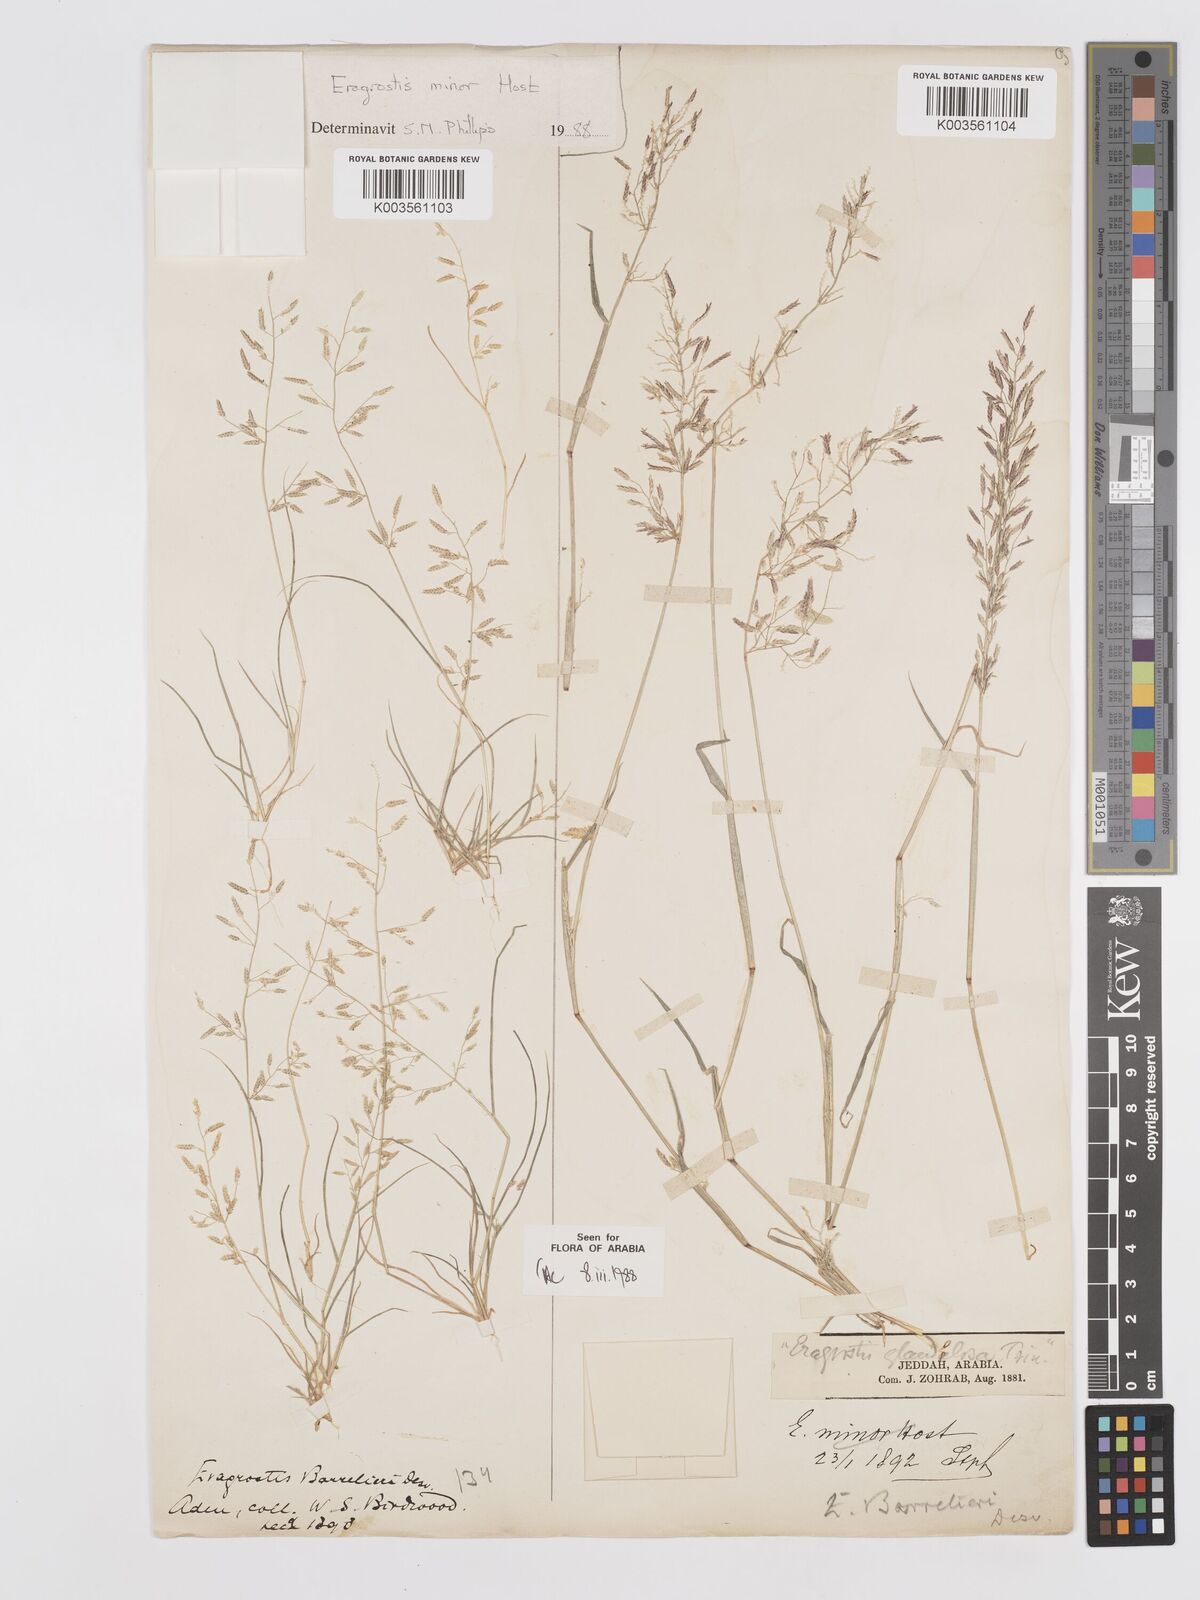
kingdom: Plantae
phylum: Tracheophyta
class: Liliopsida
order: Poales
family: Poaceae
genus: Eragrostis
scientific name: Eragrostis barrelieri
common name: Mediterranean lovegrass
